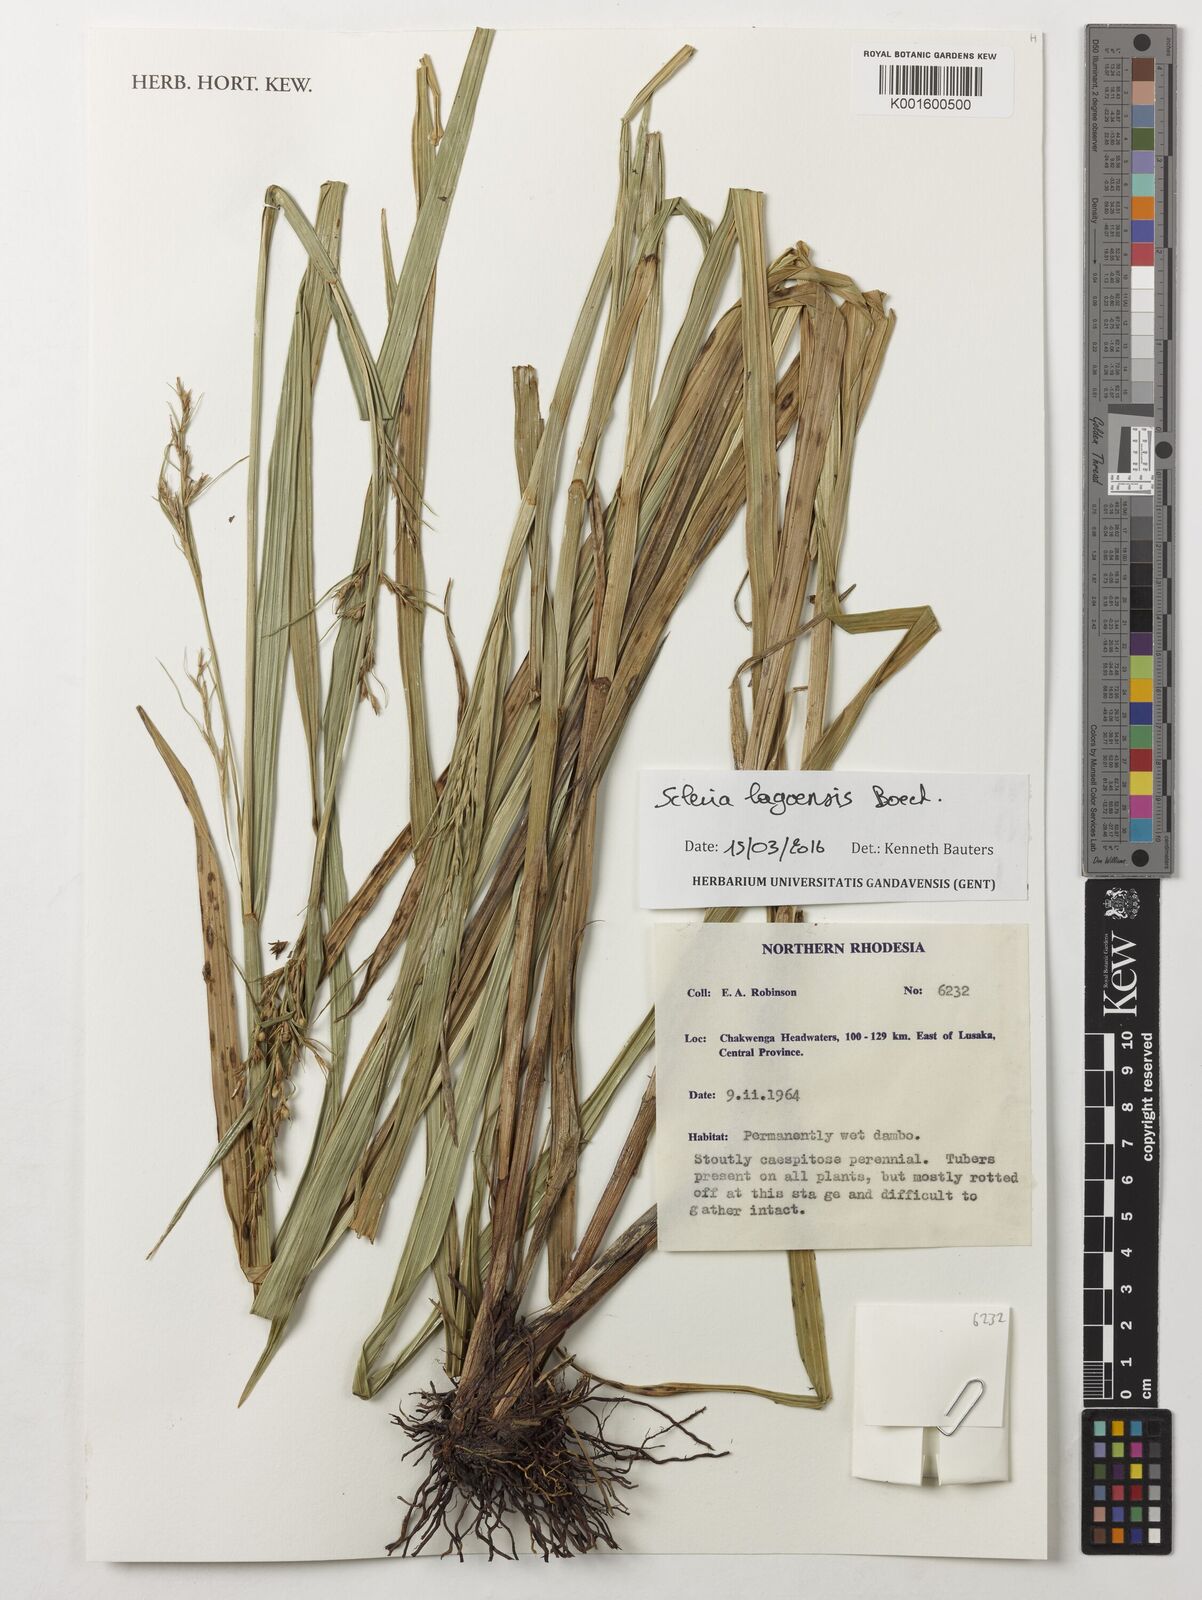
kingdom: Plantae
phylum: Tracheophyta
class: Liliopsida
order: Poales
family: Cyperaceae
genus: Scleria
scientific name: Scleria lagoensis
